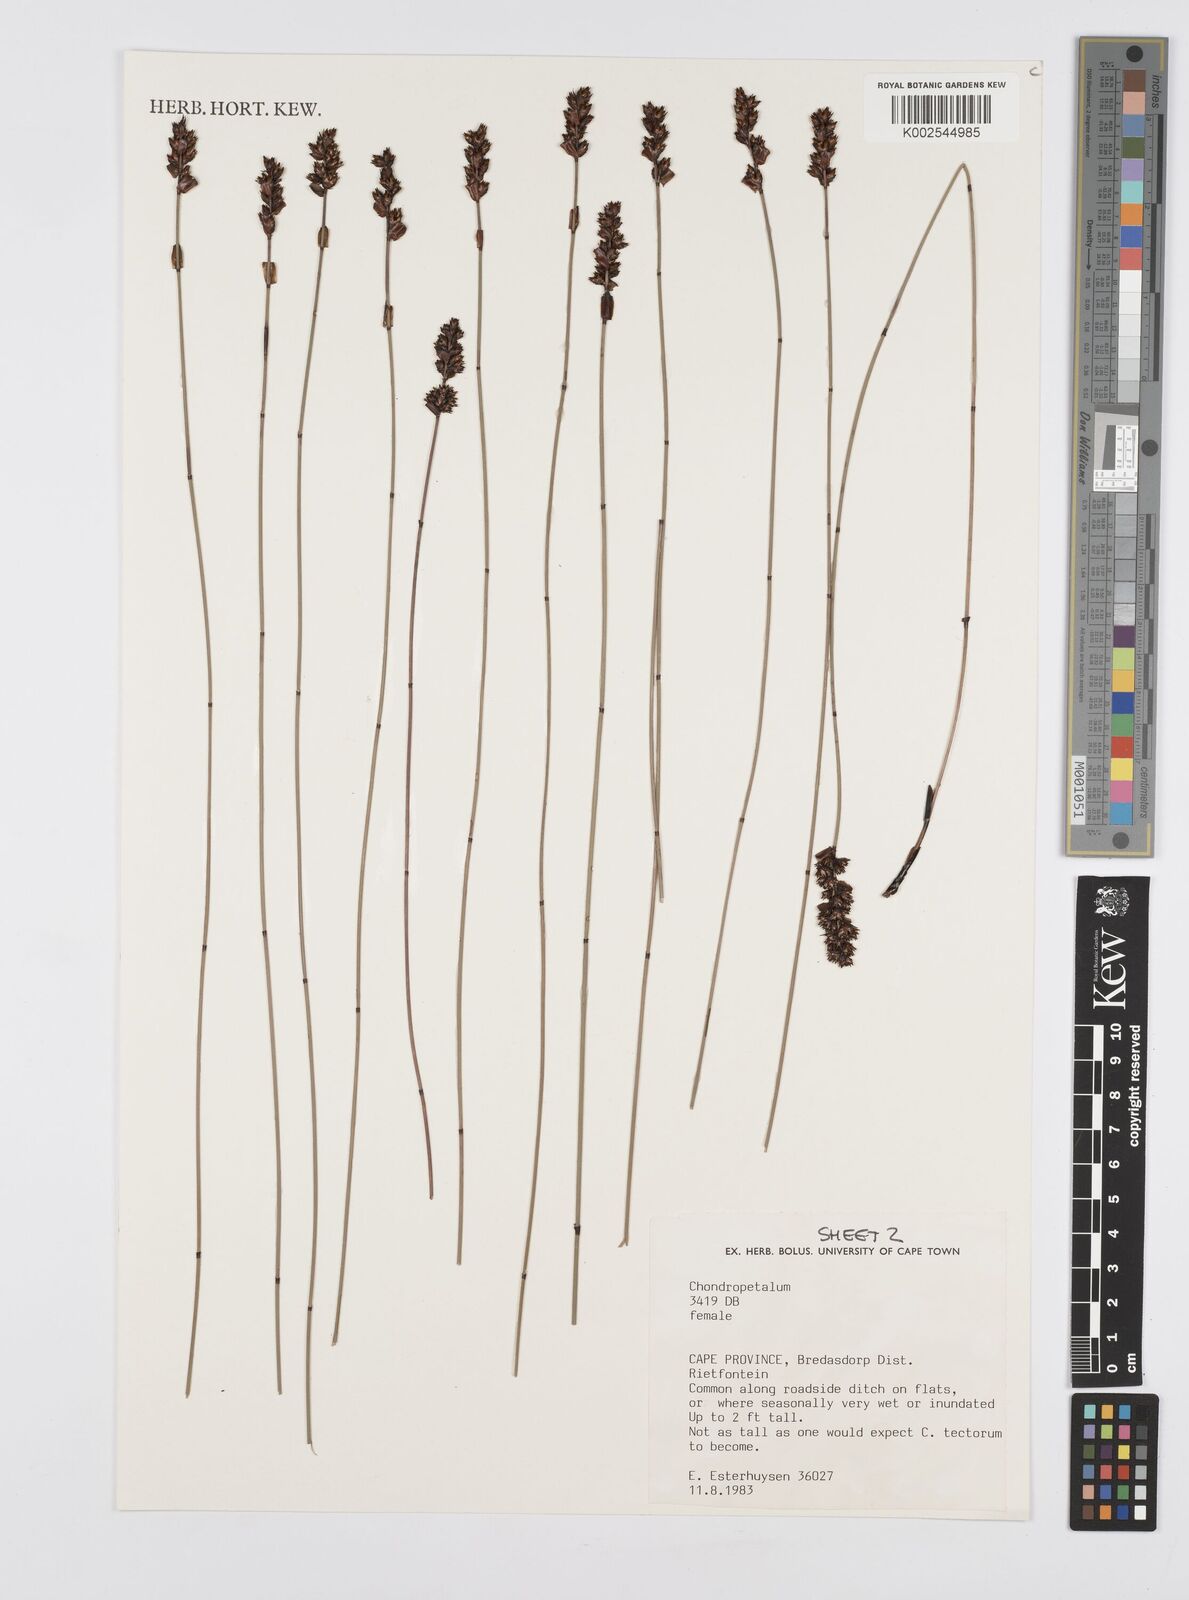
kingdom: Plantae
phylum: Tracheophyta
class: Liliopsida
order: Poales
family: Restionaceae
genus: Elegia
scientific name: Elegia
